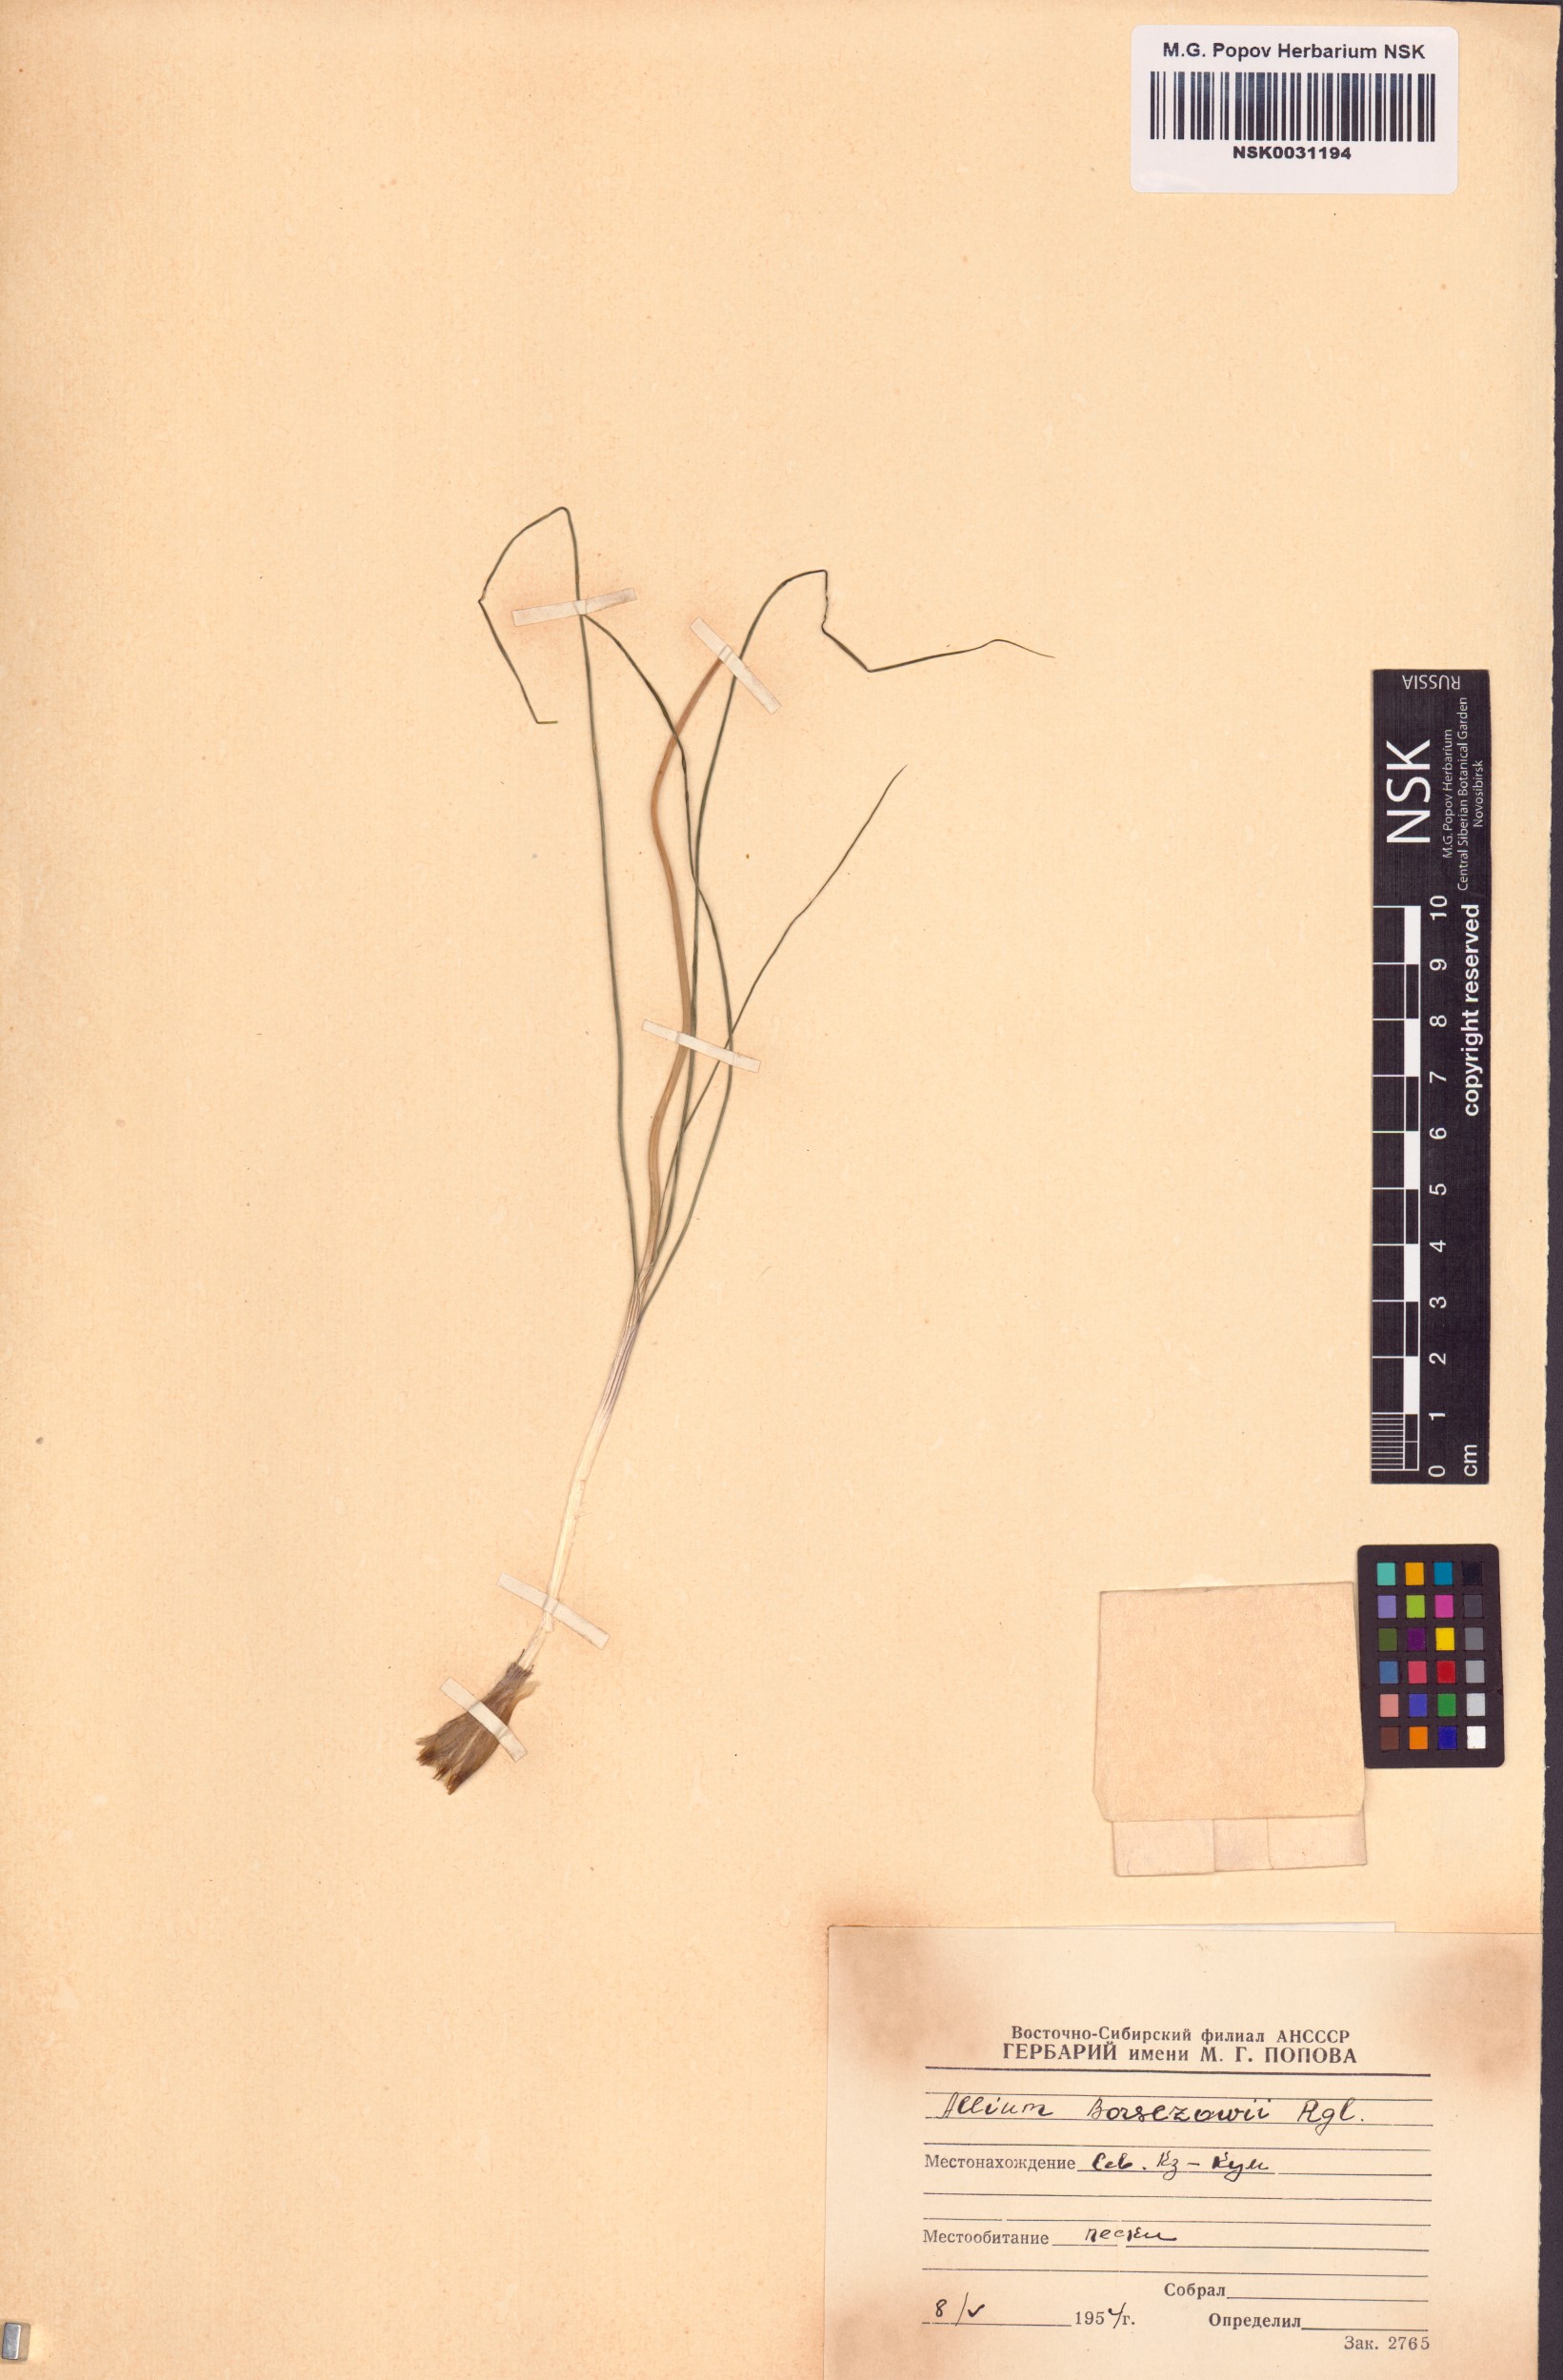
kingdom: Plantae
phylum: Tracheophyta
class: Liliopsida
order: Asparagales
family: Amaryllidaceae
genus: Allium
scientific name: Allium borszczowii
